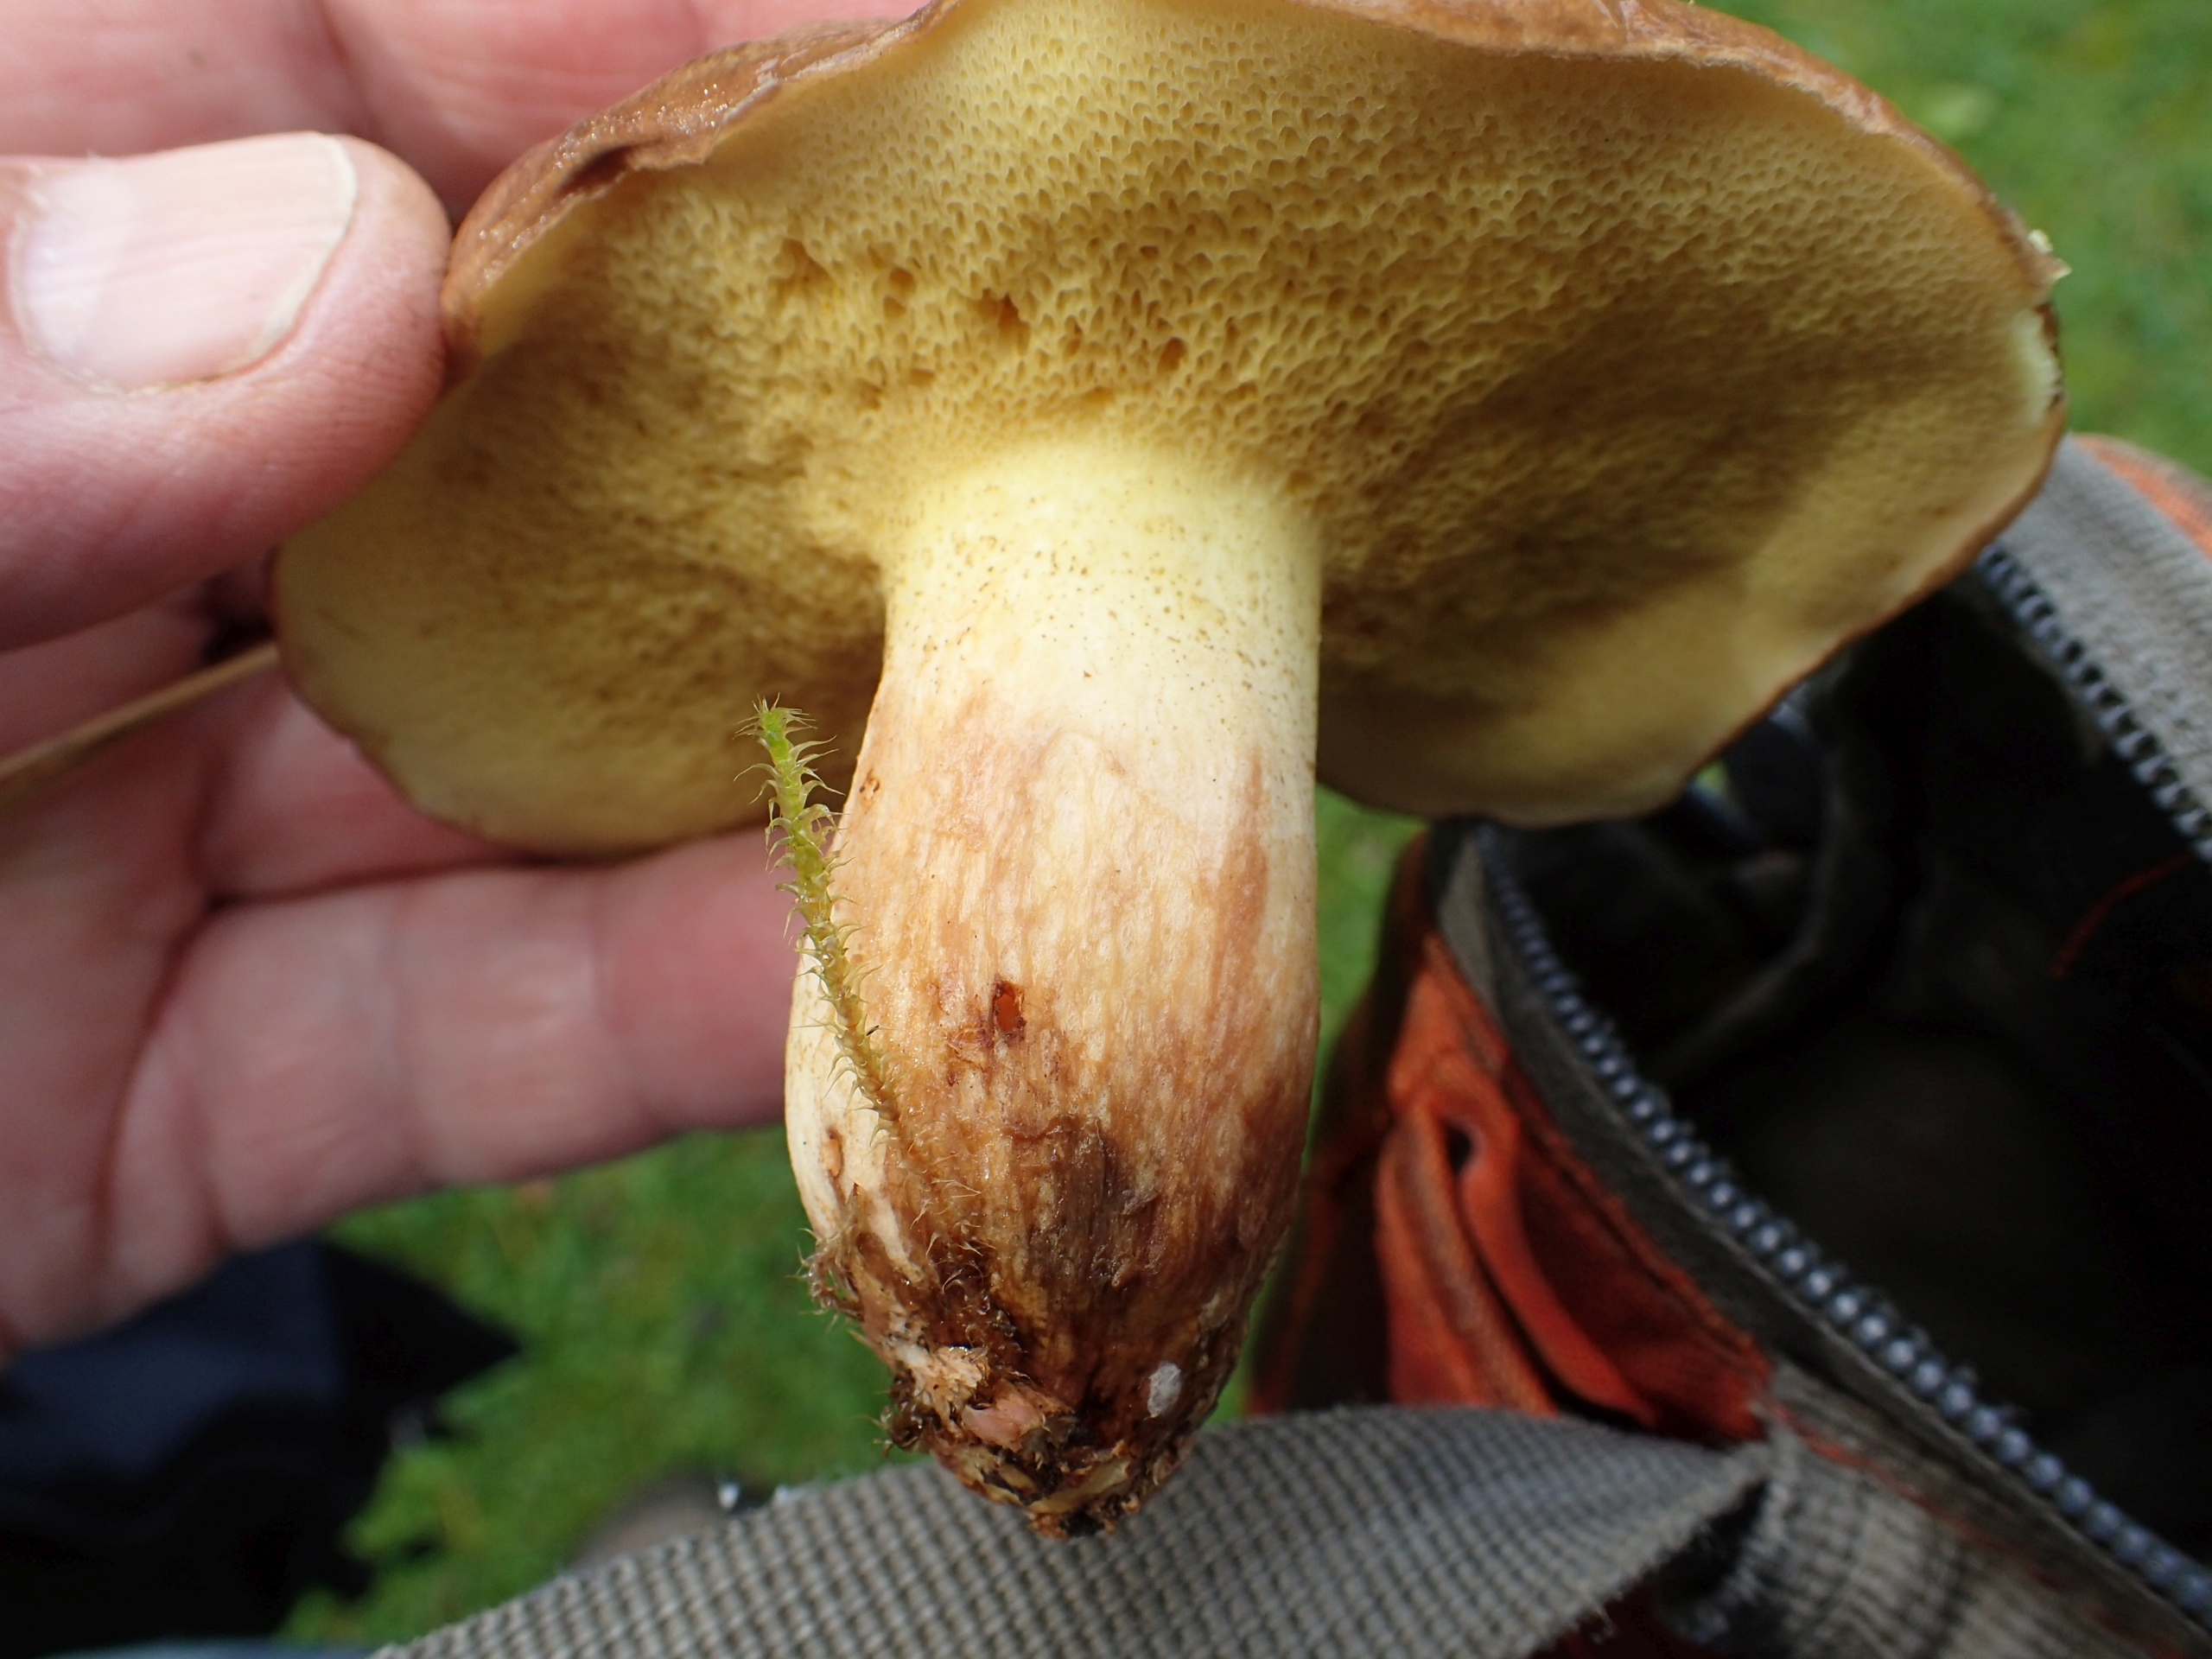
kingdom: Fungi
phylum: Basidiomycota
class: Agaricomycetes
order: Boletales
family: Suillaceae
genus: Suillus
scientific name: Suillus collinitus
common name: Rosafodet slimrørhat
